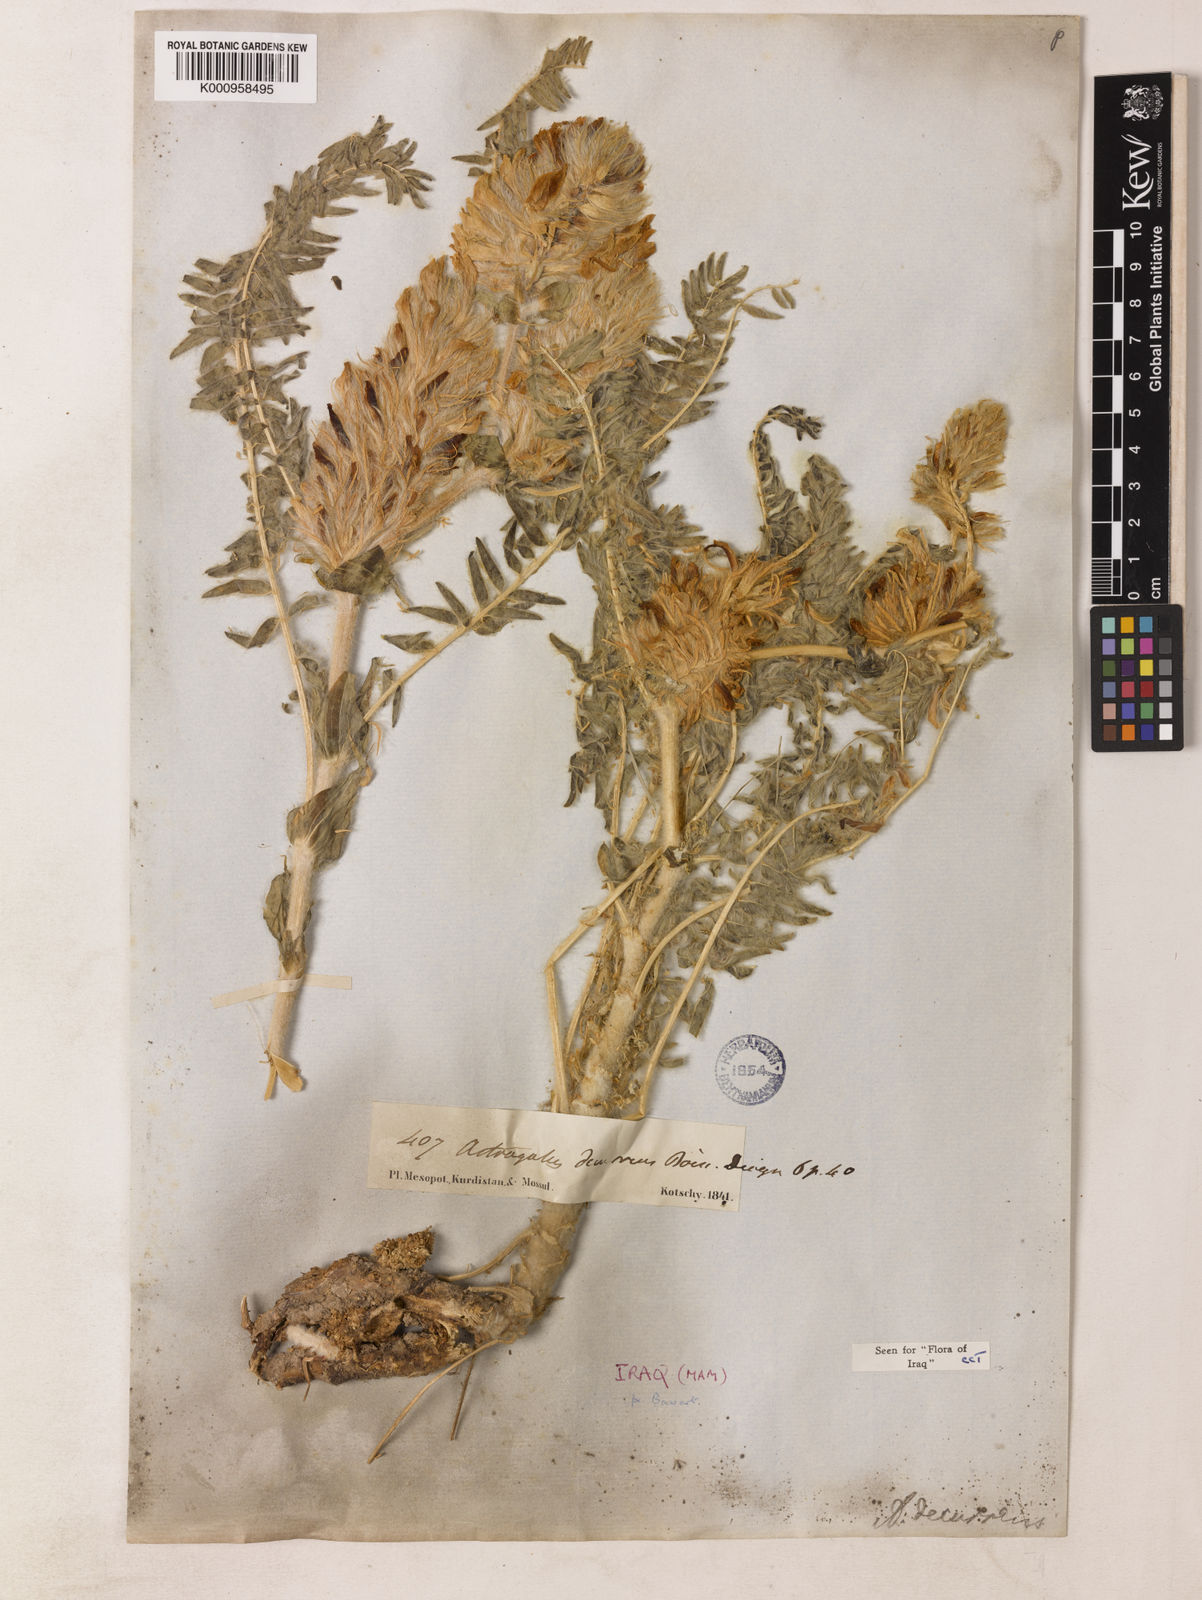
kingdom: Plantae
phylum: Tracheophyta
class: Magnoliopsida
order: Fabales
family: Fabaceae
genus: Astragalus
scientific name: Astragalus decurrens
